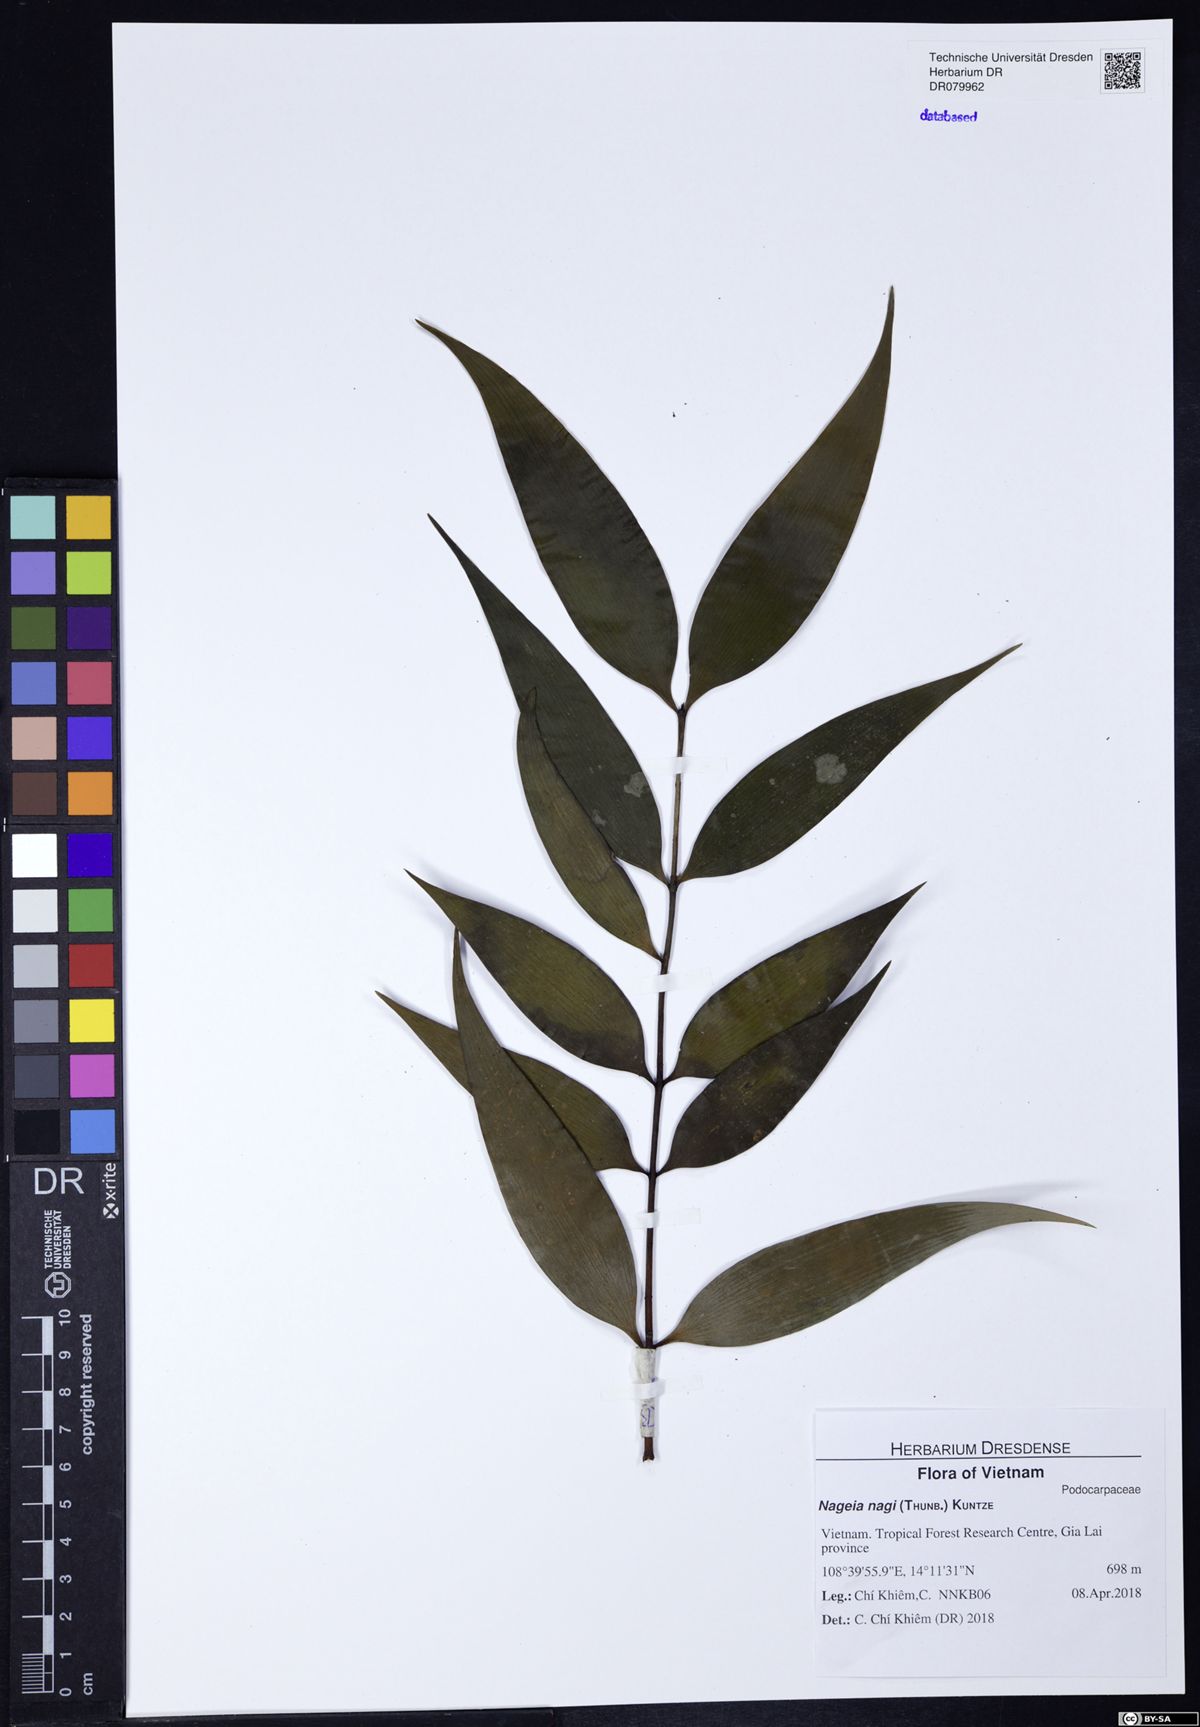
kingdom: Plantae
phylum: Tracheophyta
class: Pinopsida
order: Pinales
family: Podocarpaceae
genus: Nageia
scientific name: Nageia nagi
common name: Kaphal
